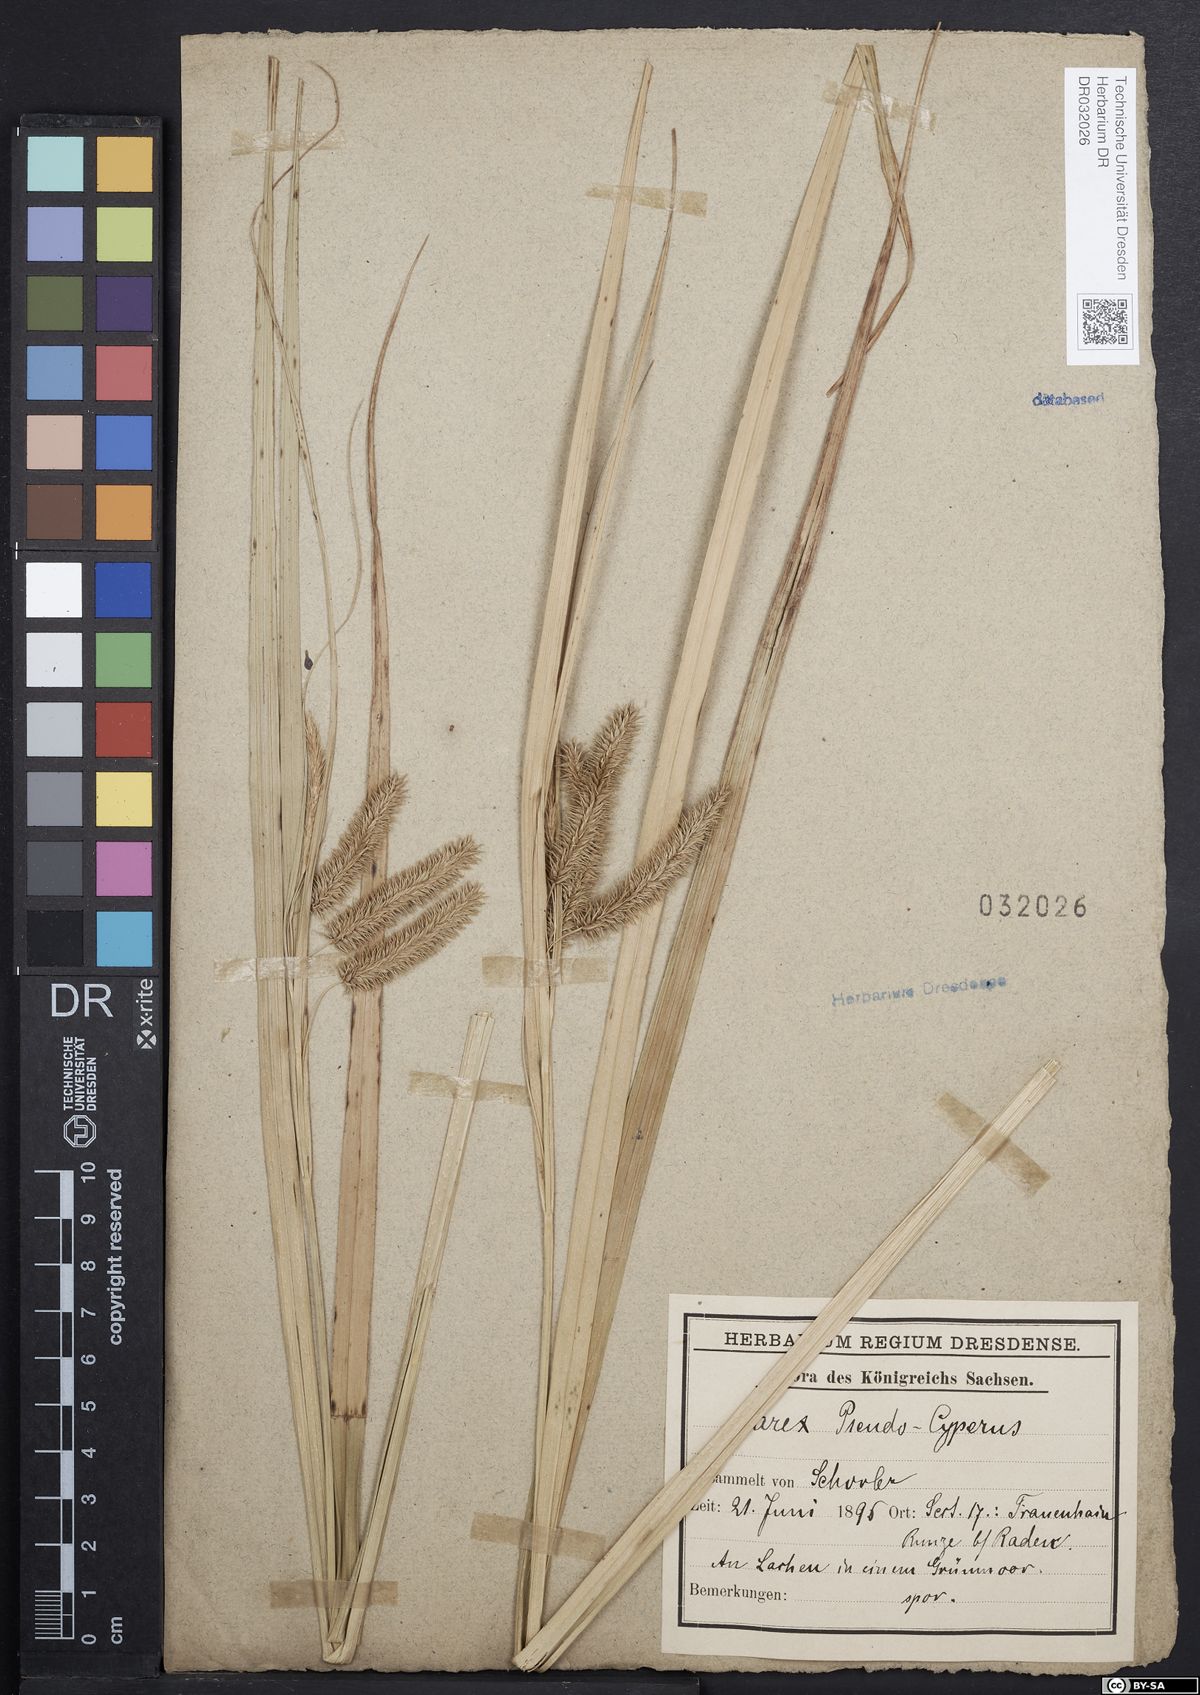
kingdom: Plantae
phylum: Tracheophyta
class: Liliopsida
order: Poales
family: Cyperaceae
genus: Carex
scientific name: Carex pseudocyperus
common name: Cyperus sedge
